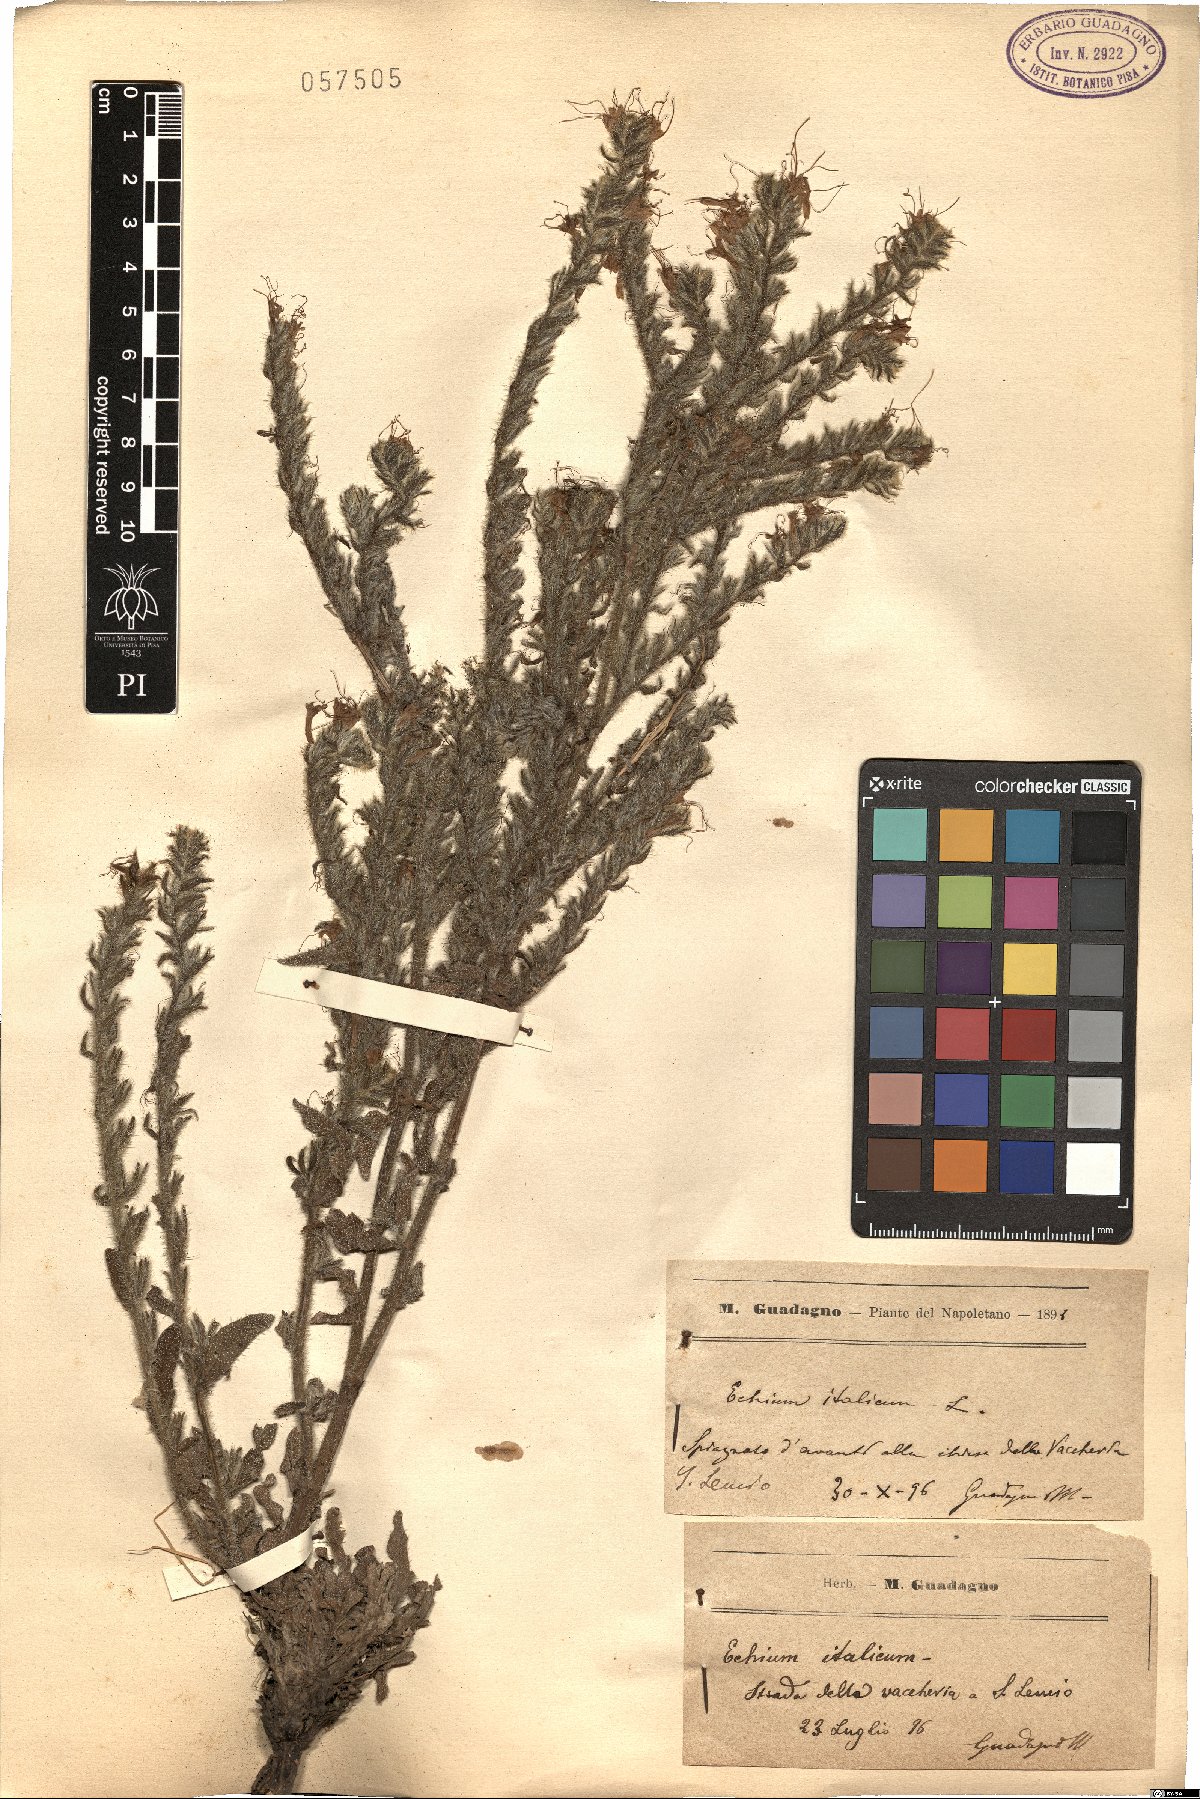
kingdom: Plantae
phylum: Tracheophyta
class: Magnoliopsida
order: Boraginales
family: Boraginaceae
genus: Echium
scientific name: Echium italicum
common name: Italian viper's bugloss
